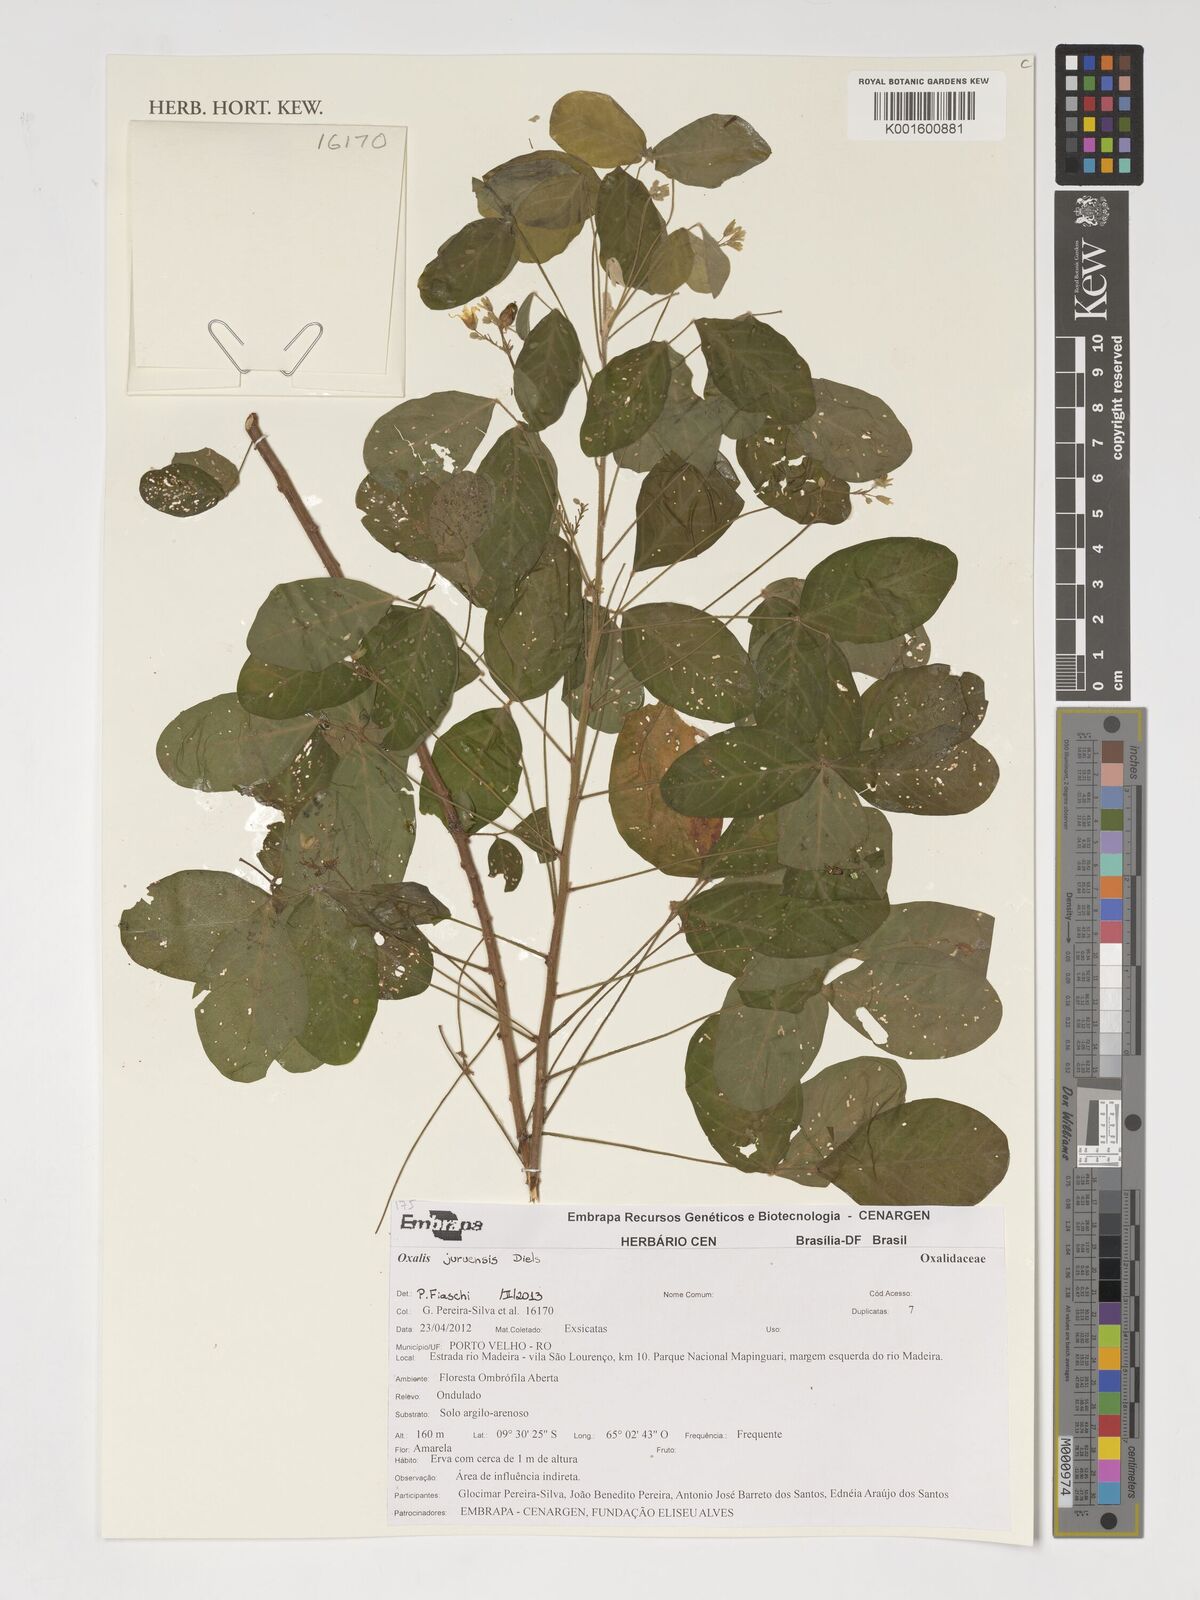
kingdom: Plantae
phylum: Tracheophyta
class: Magnoliopsida
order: Oxalidales
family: Oxalidaceae
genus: Oxalis
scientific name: Oxalis juruensis
